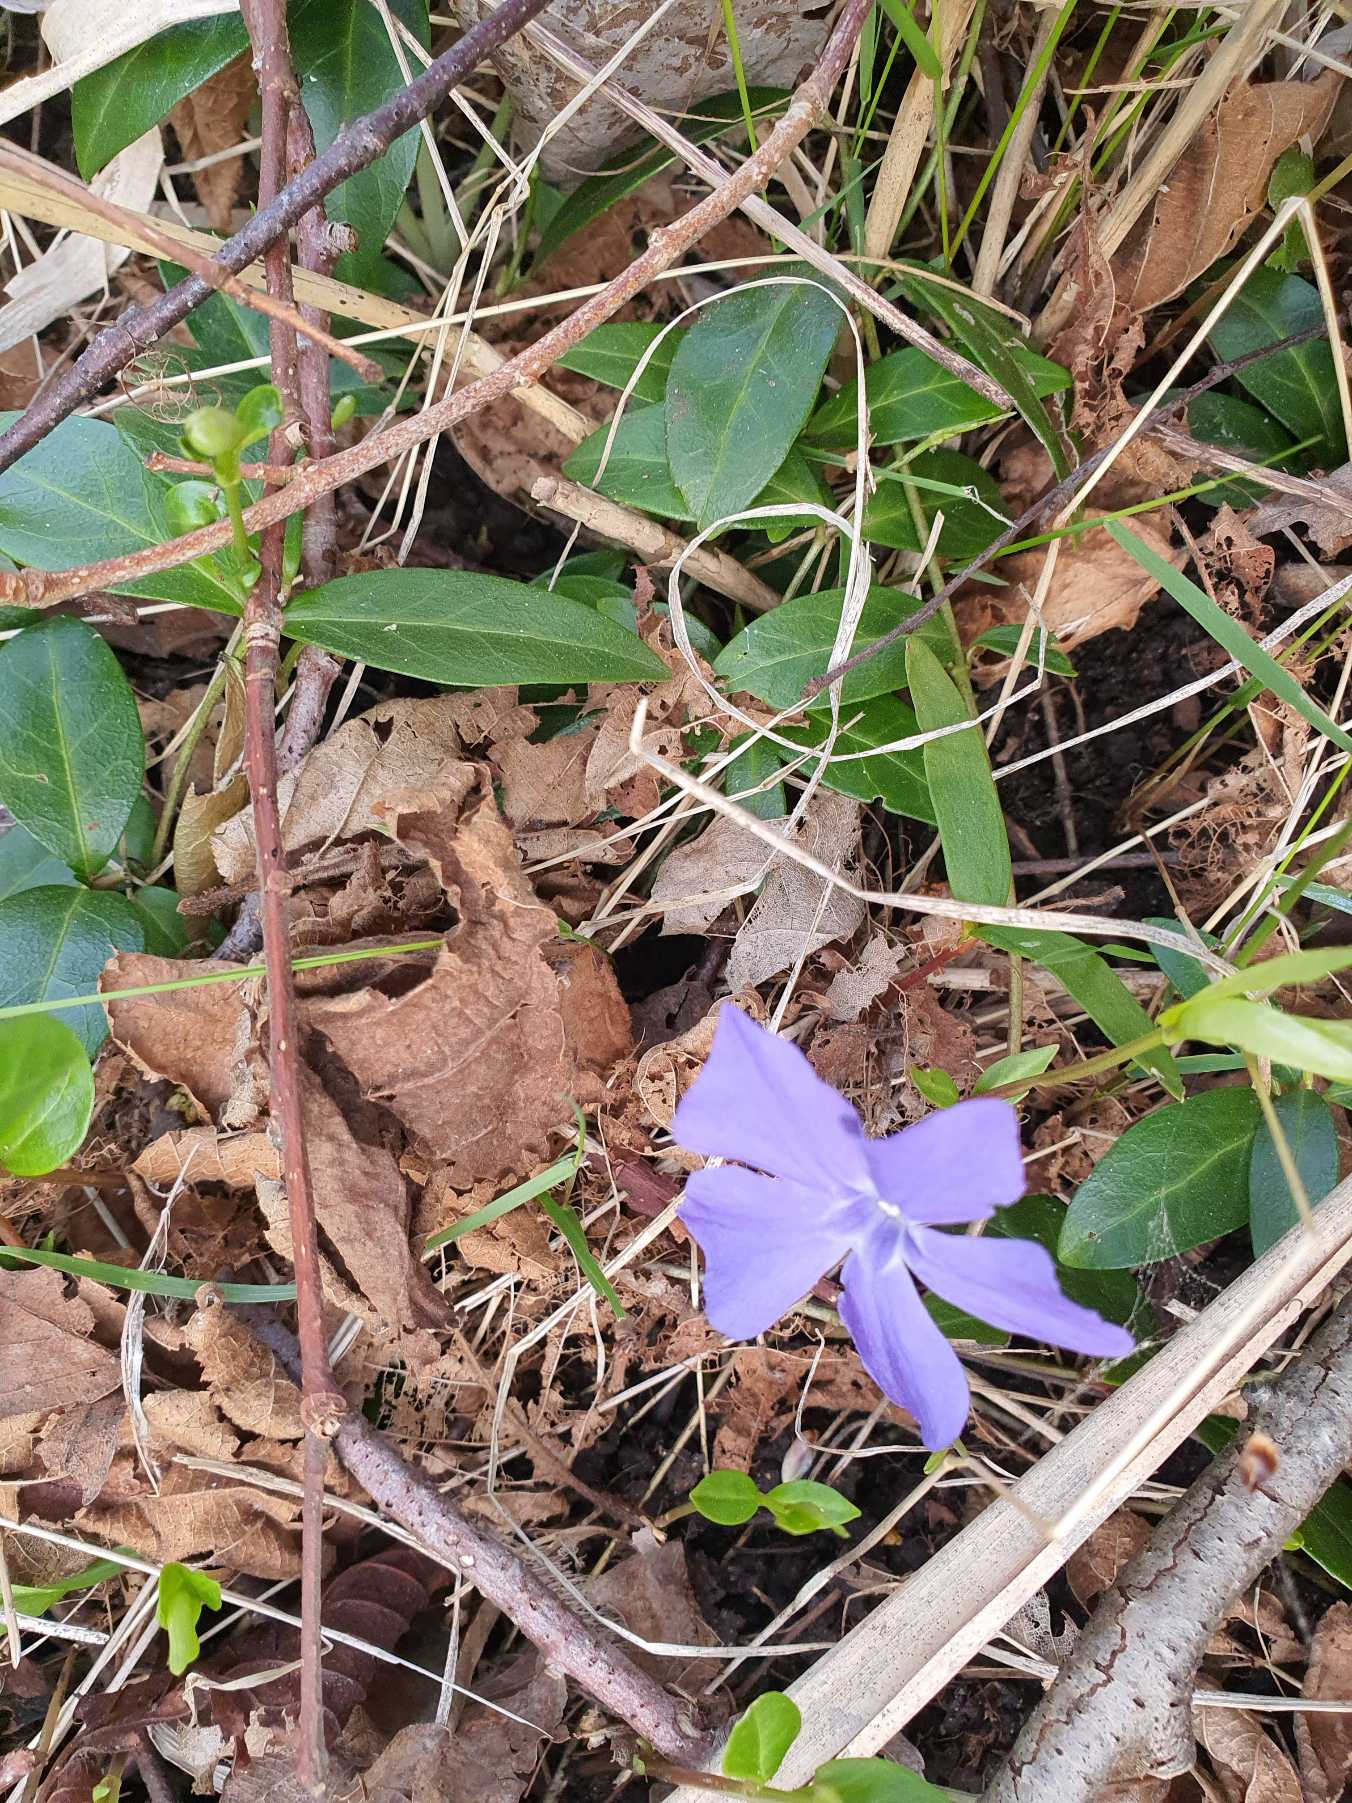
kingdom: Plantae
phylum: Tracheophyta
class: Magnoliopsida
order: Gentianales
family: Apocynaceae
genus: Vinca
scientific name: Vinca minor
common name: Liden singrøn
